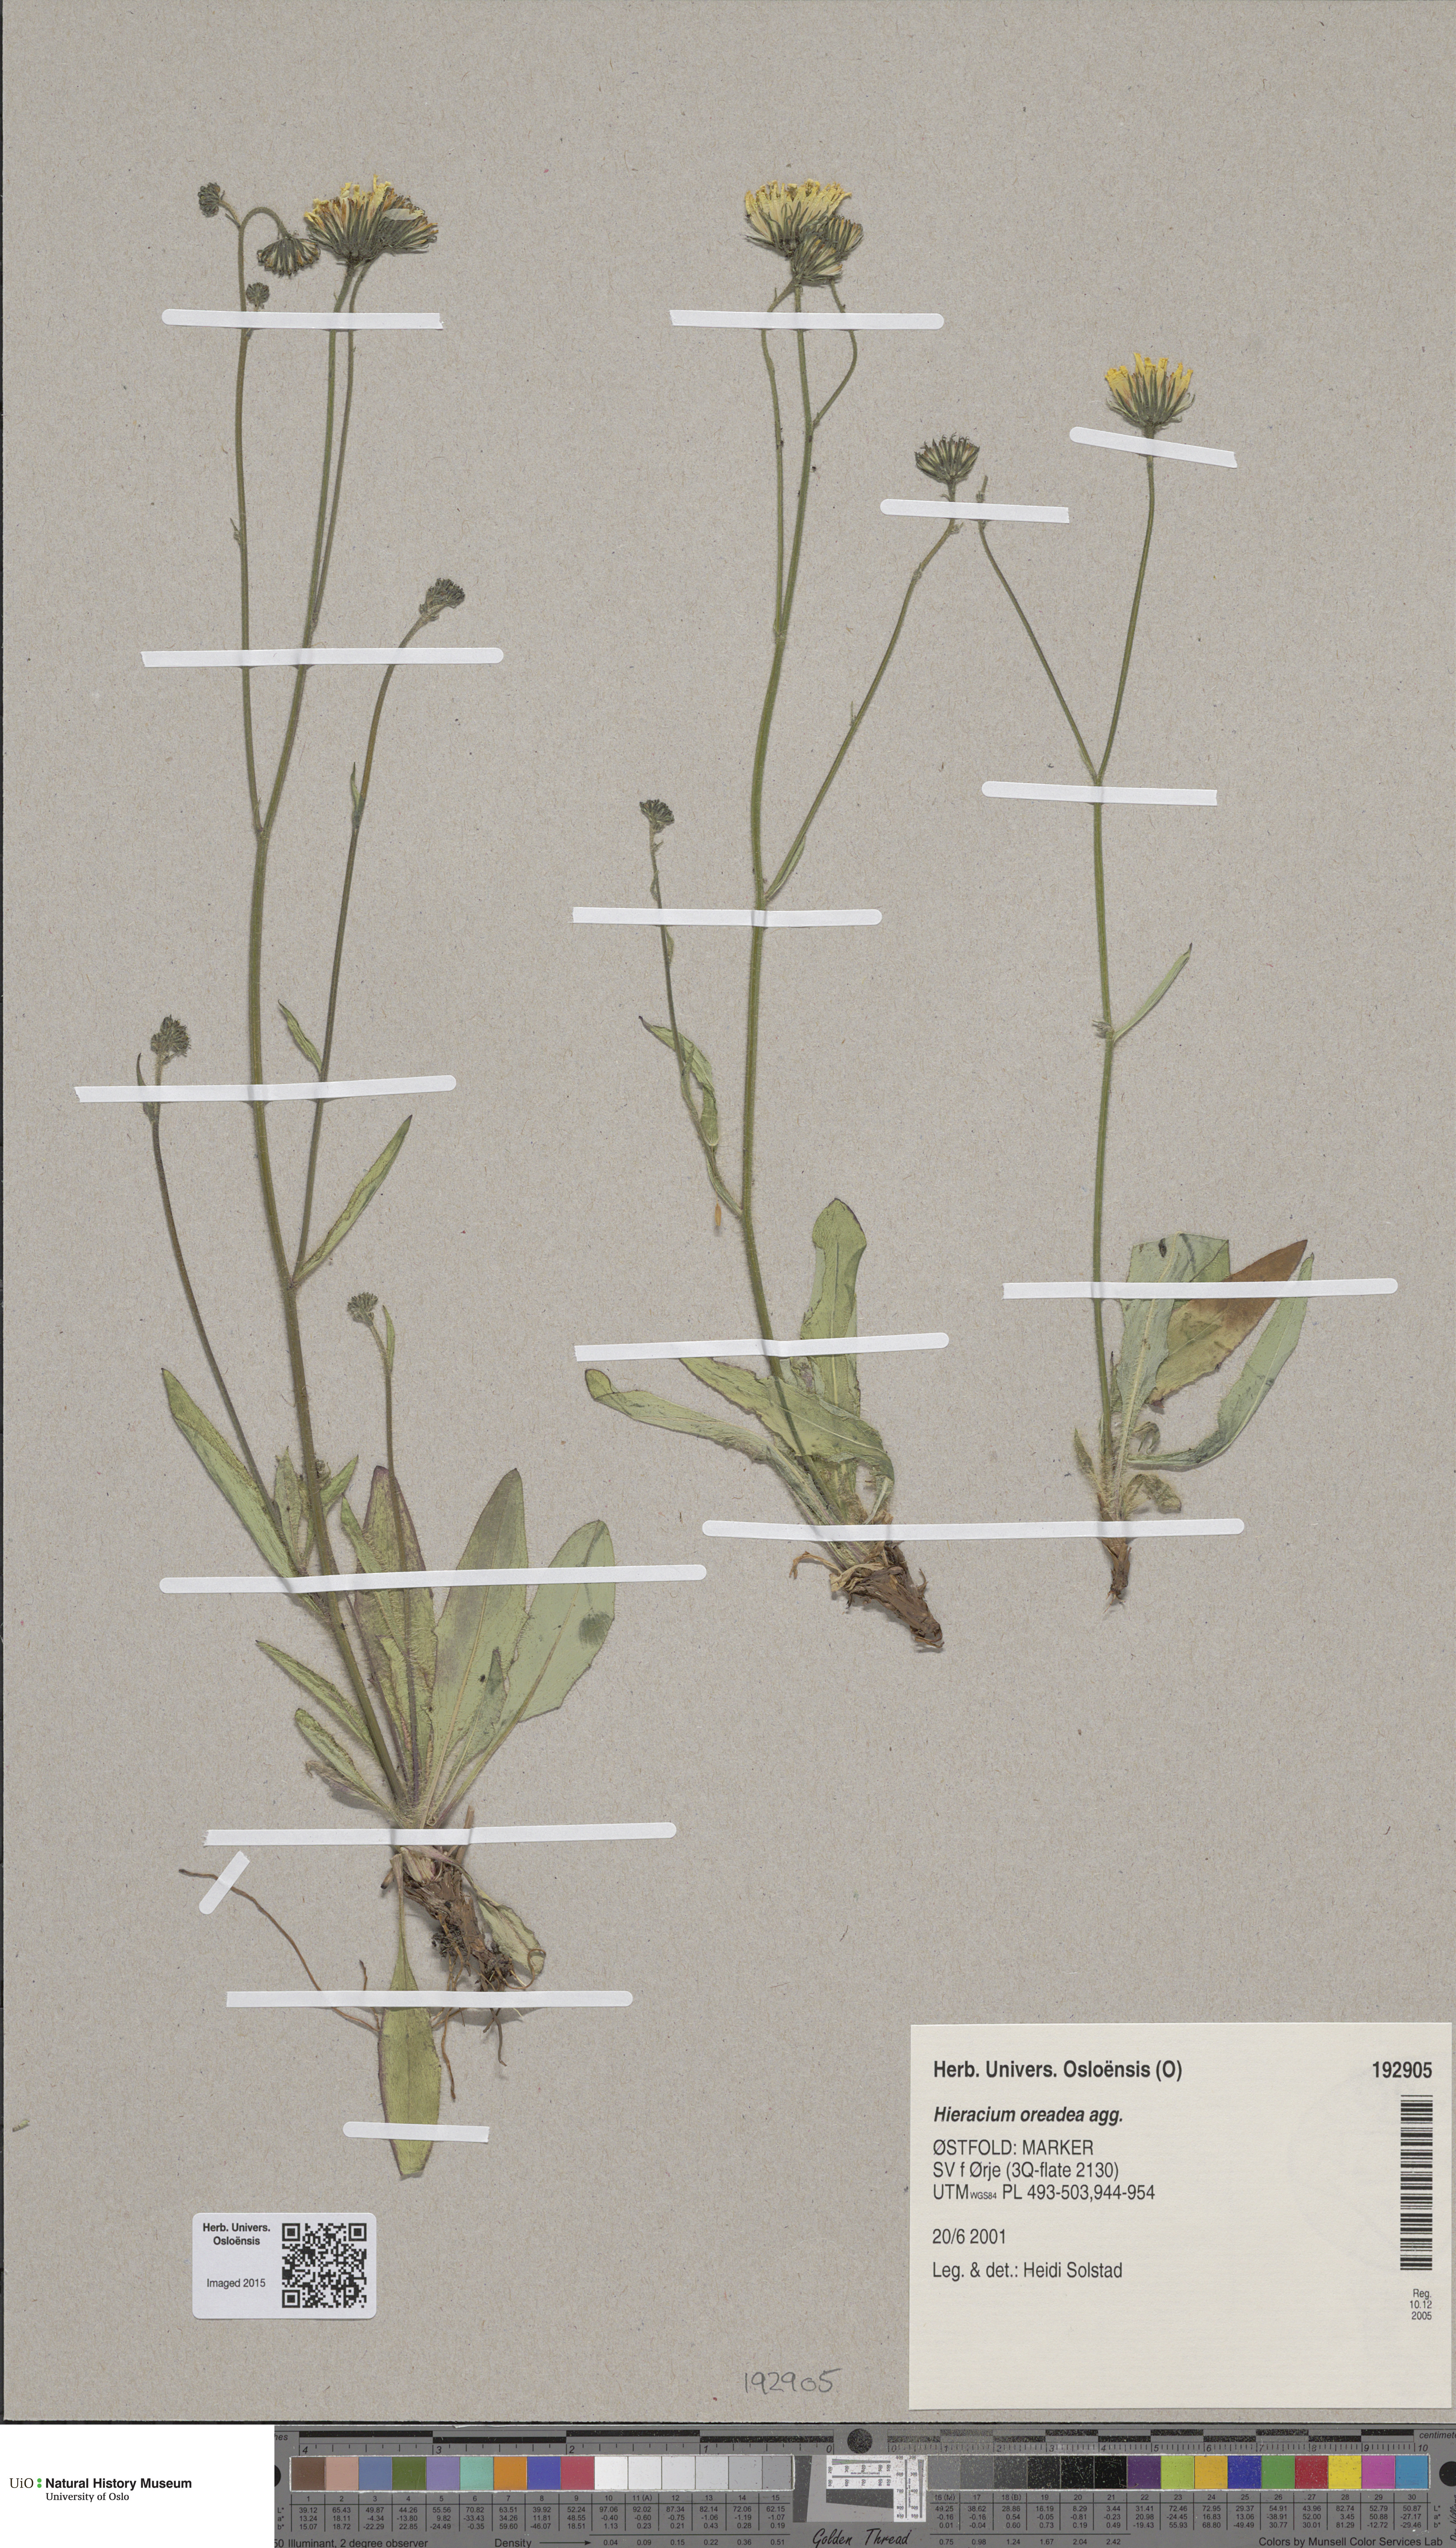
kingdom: Plantae
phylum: Tracheophyta
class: Magnoliopsida
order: Asterales
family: Asteraceae
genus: Hieracium
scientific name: Hieracium
